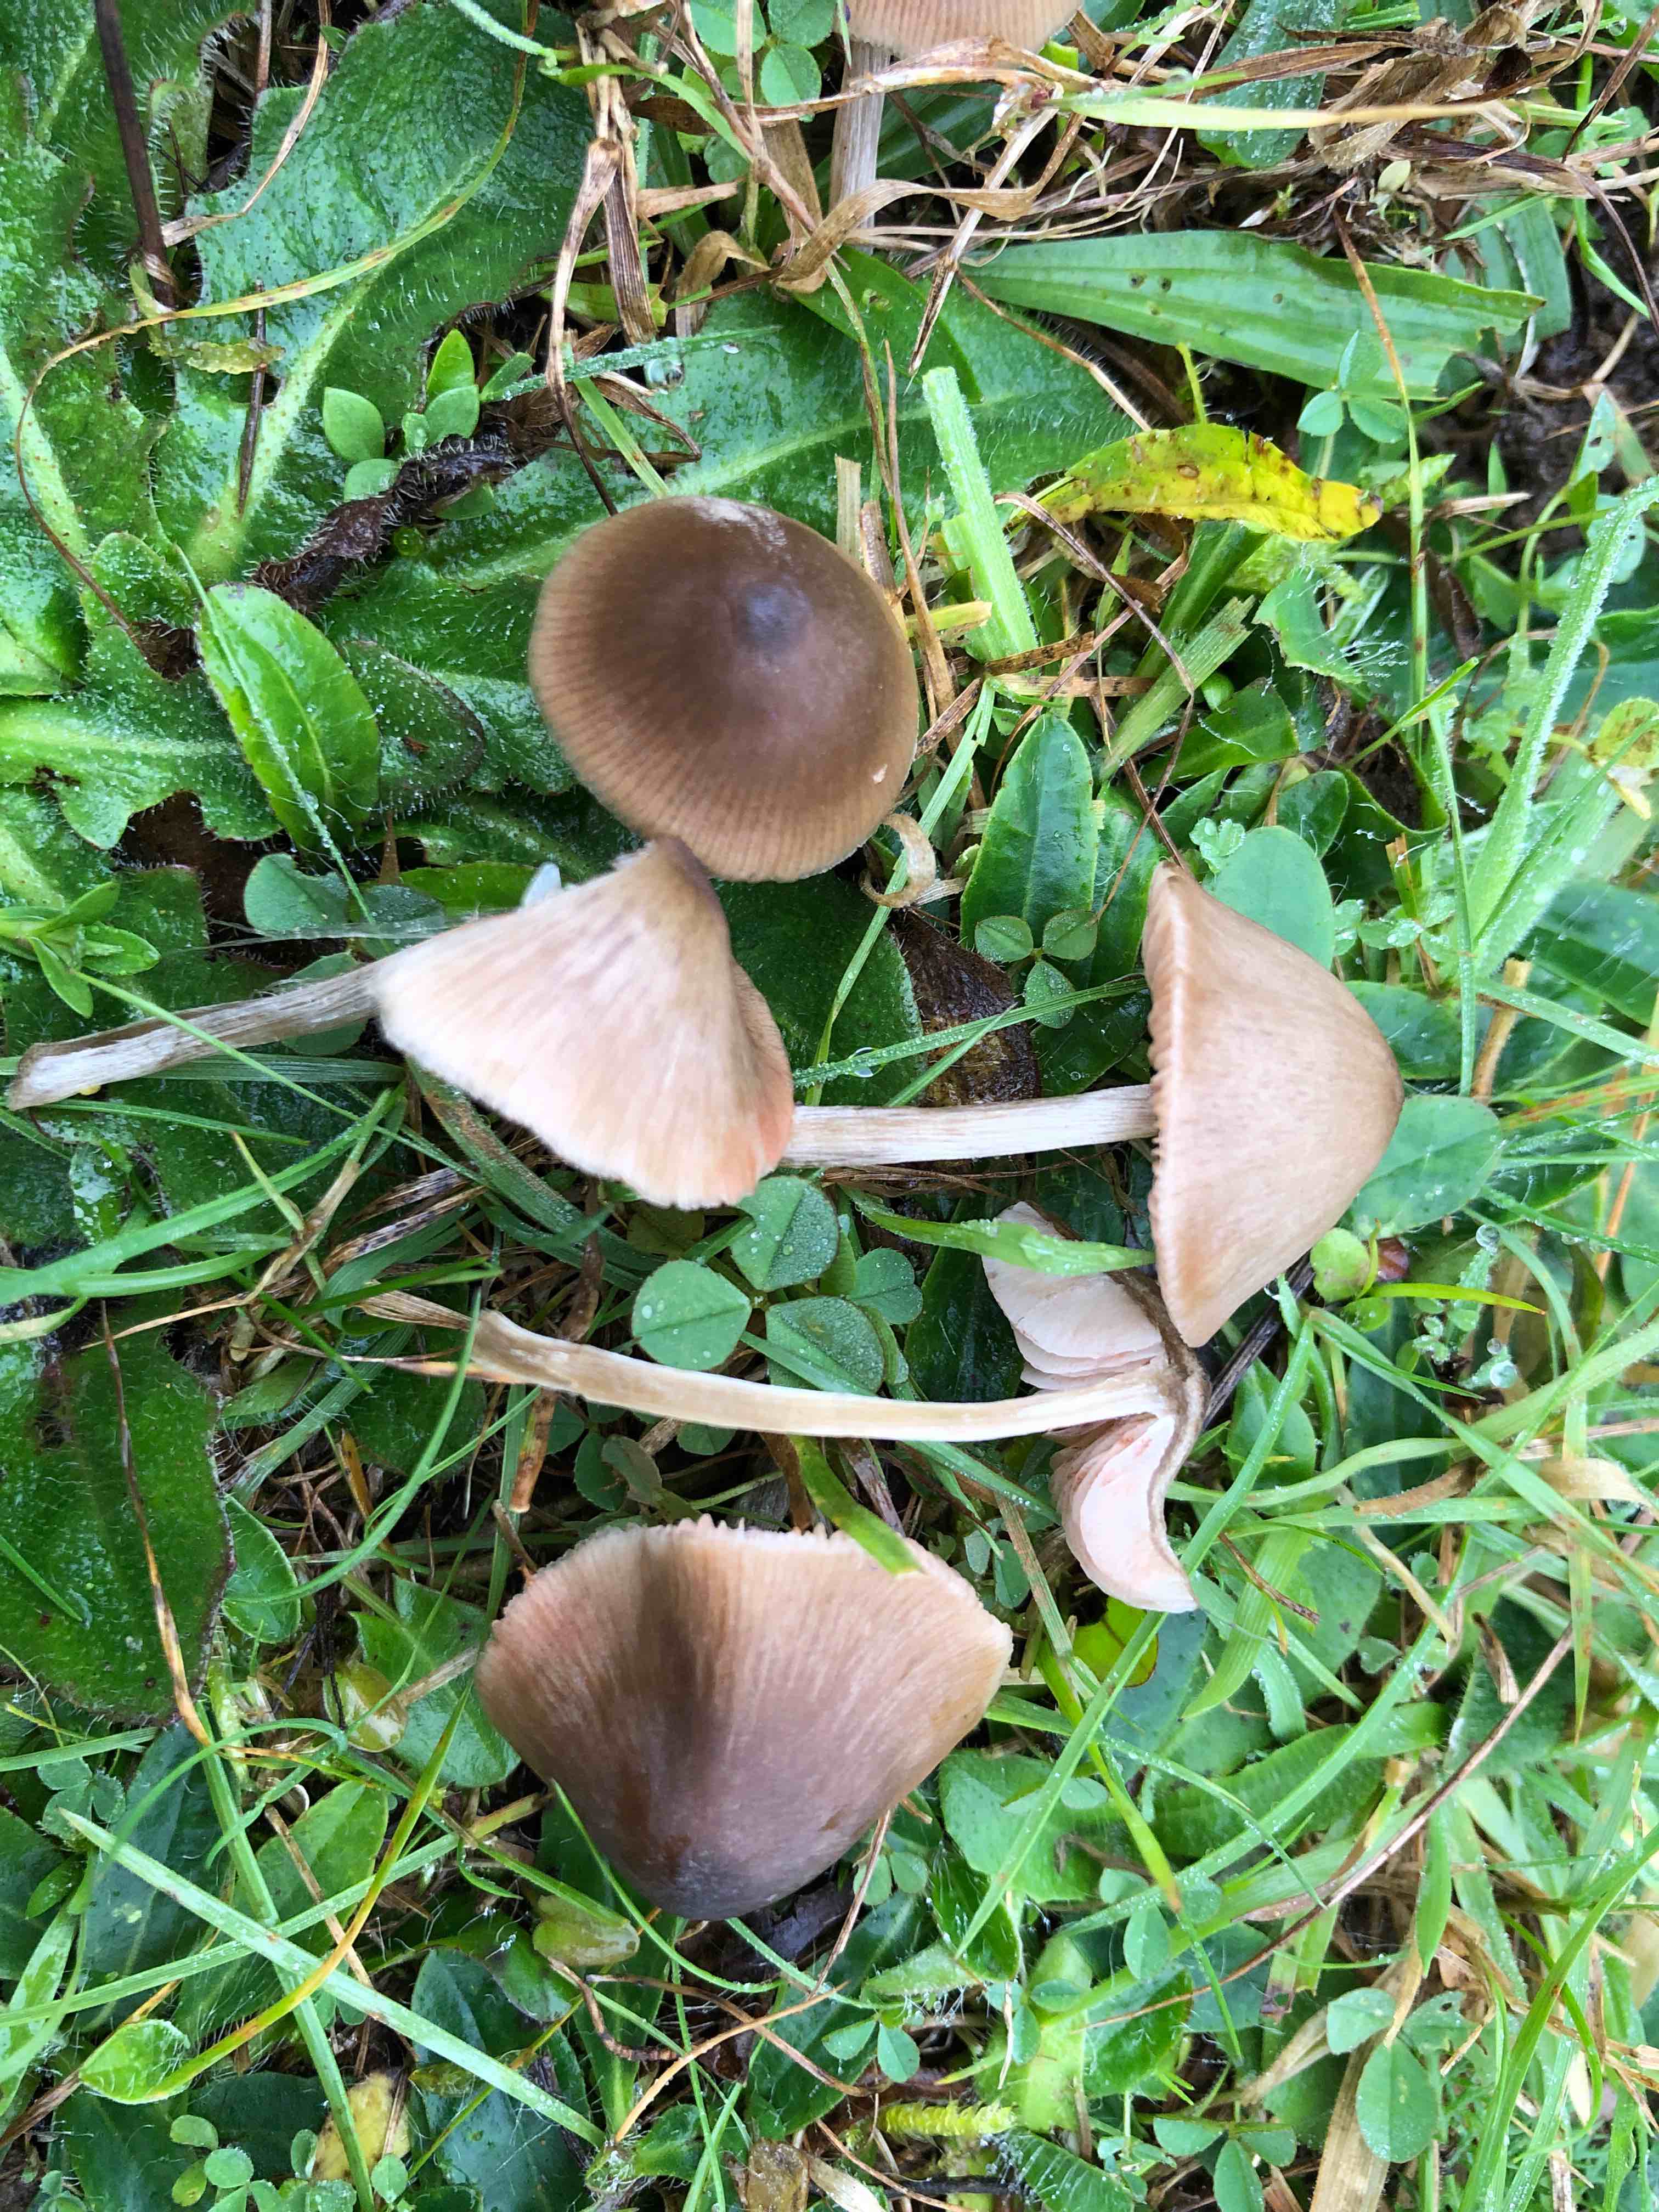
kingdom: Fungi
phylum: Basidiomycota
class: Agaricomycetes
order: Agaricales
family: Entolomataceae
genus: Entoloma
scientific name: Entoloma conferendum
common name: stjernesporet rødblad
